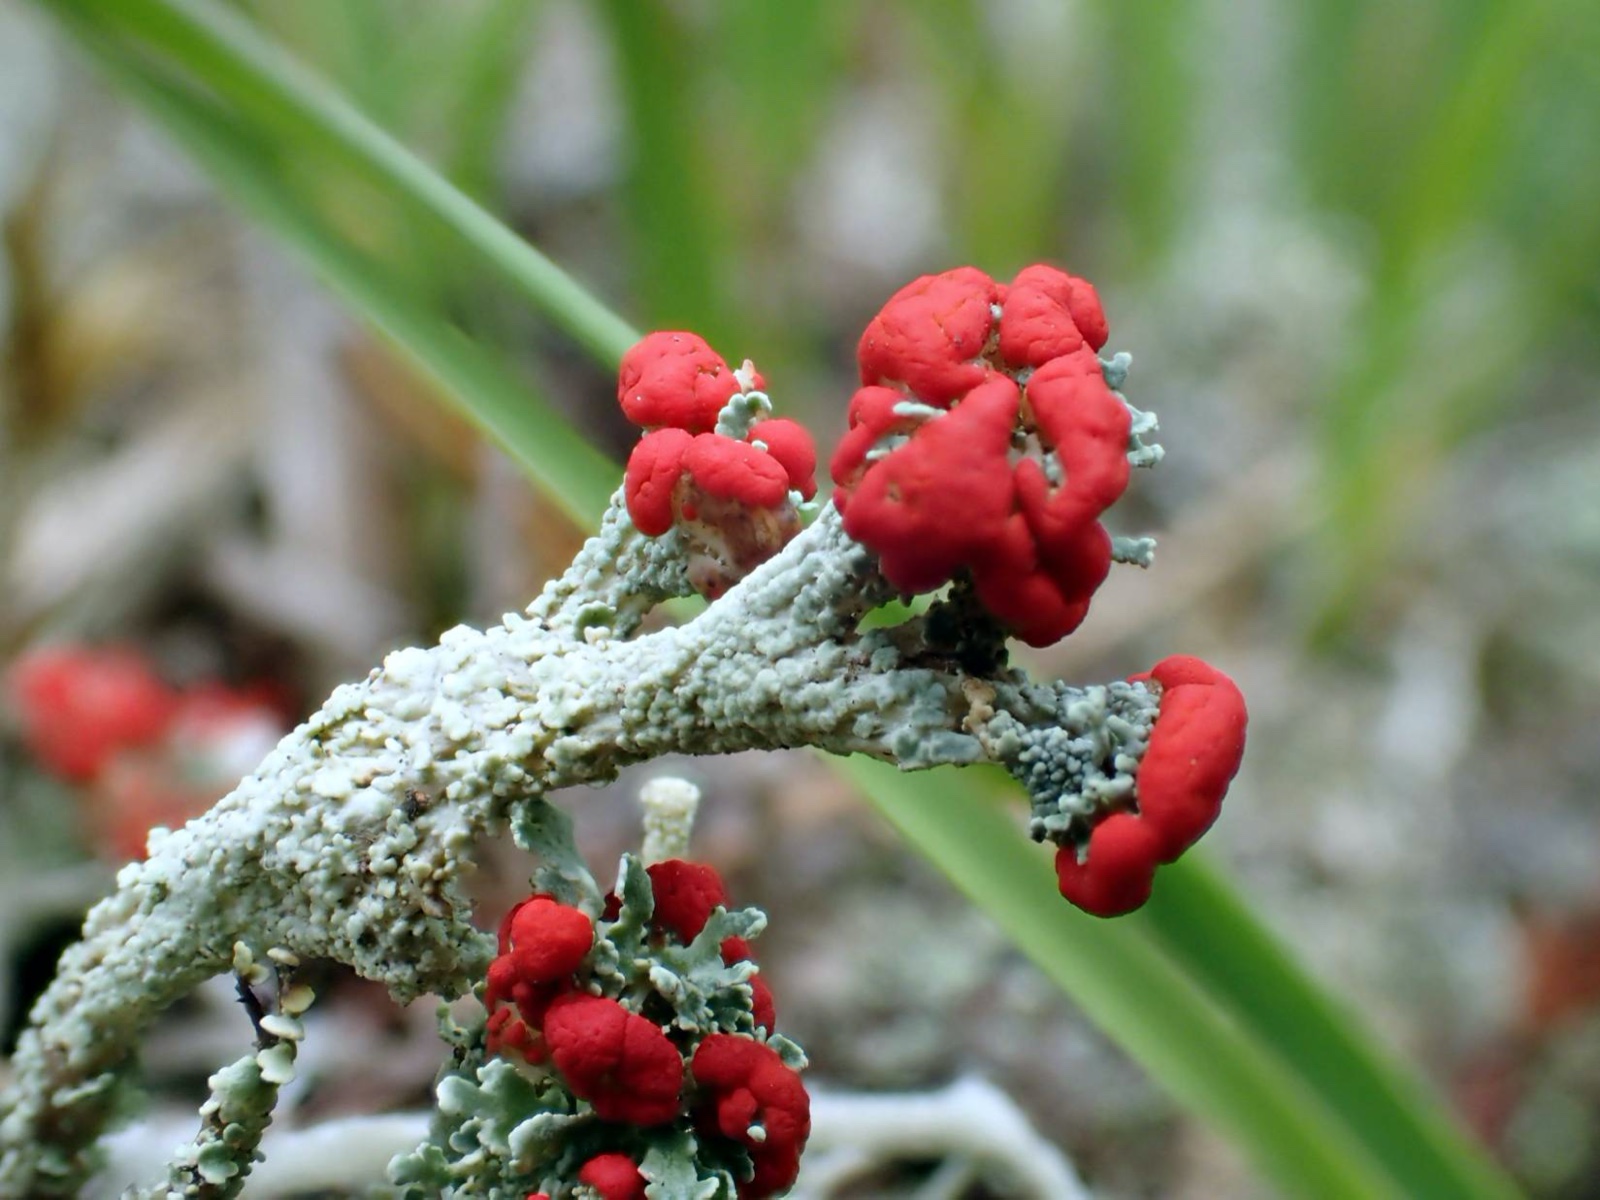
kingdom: Fungi
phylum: Ascomycota
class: Lecanoromycetes
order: Lecanorales
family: Cladoniaceae
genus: Cladonia
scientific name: Cladonia floerkeana
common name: lakrød bægerlav
